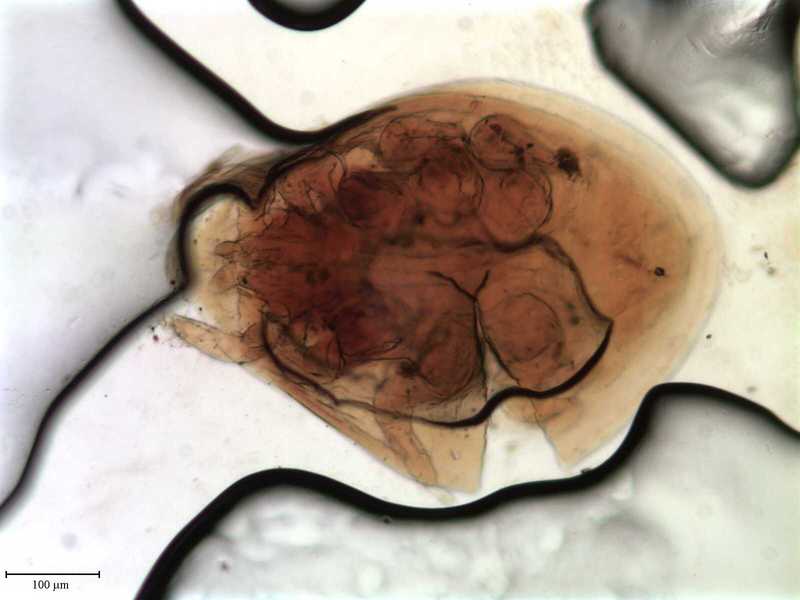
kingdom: Animalia
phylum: Arthropoda
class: Arachnida
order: Mesostigmata
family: Uropodidae
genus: Uropoda
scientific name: Uropoda
